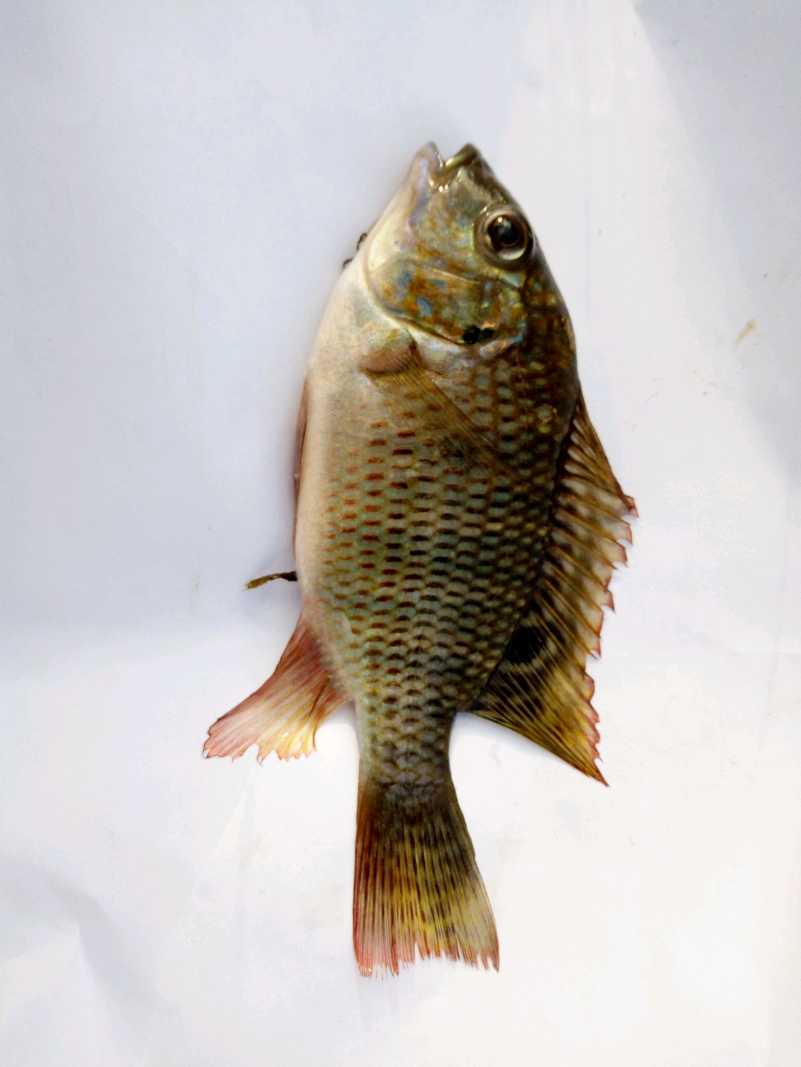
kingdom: Animalia
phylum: Chordata
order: Perciformes
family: Cichlidae
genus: Coptodon
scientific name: Coptodon rendalli
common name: Redbreast tilapia
